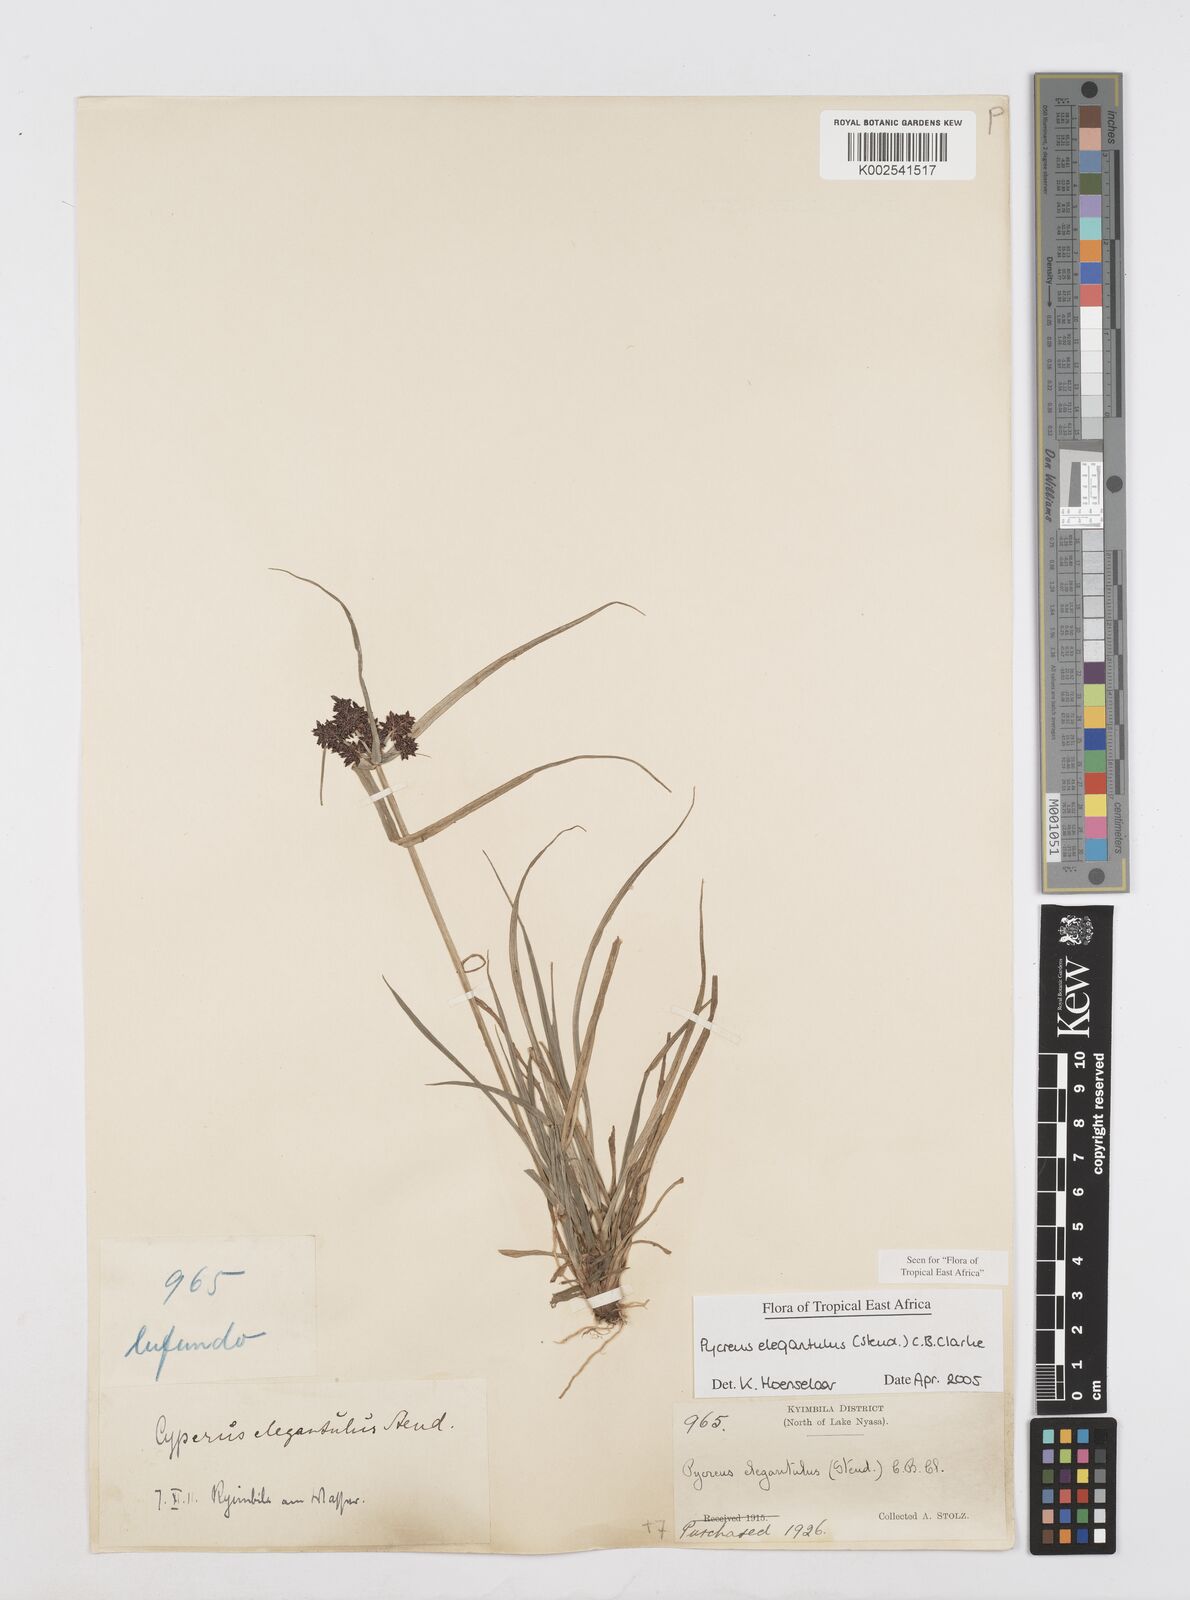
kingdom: Plantae
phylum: Tracheophyta
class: Liliopsida
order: Poales
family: Cyperaceae
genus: Cyperus
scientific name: Cyperus elegantulus
